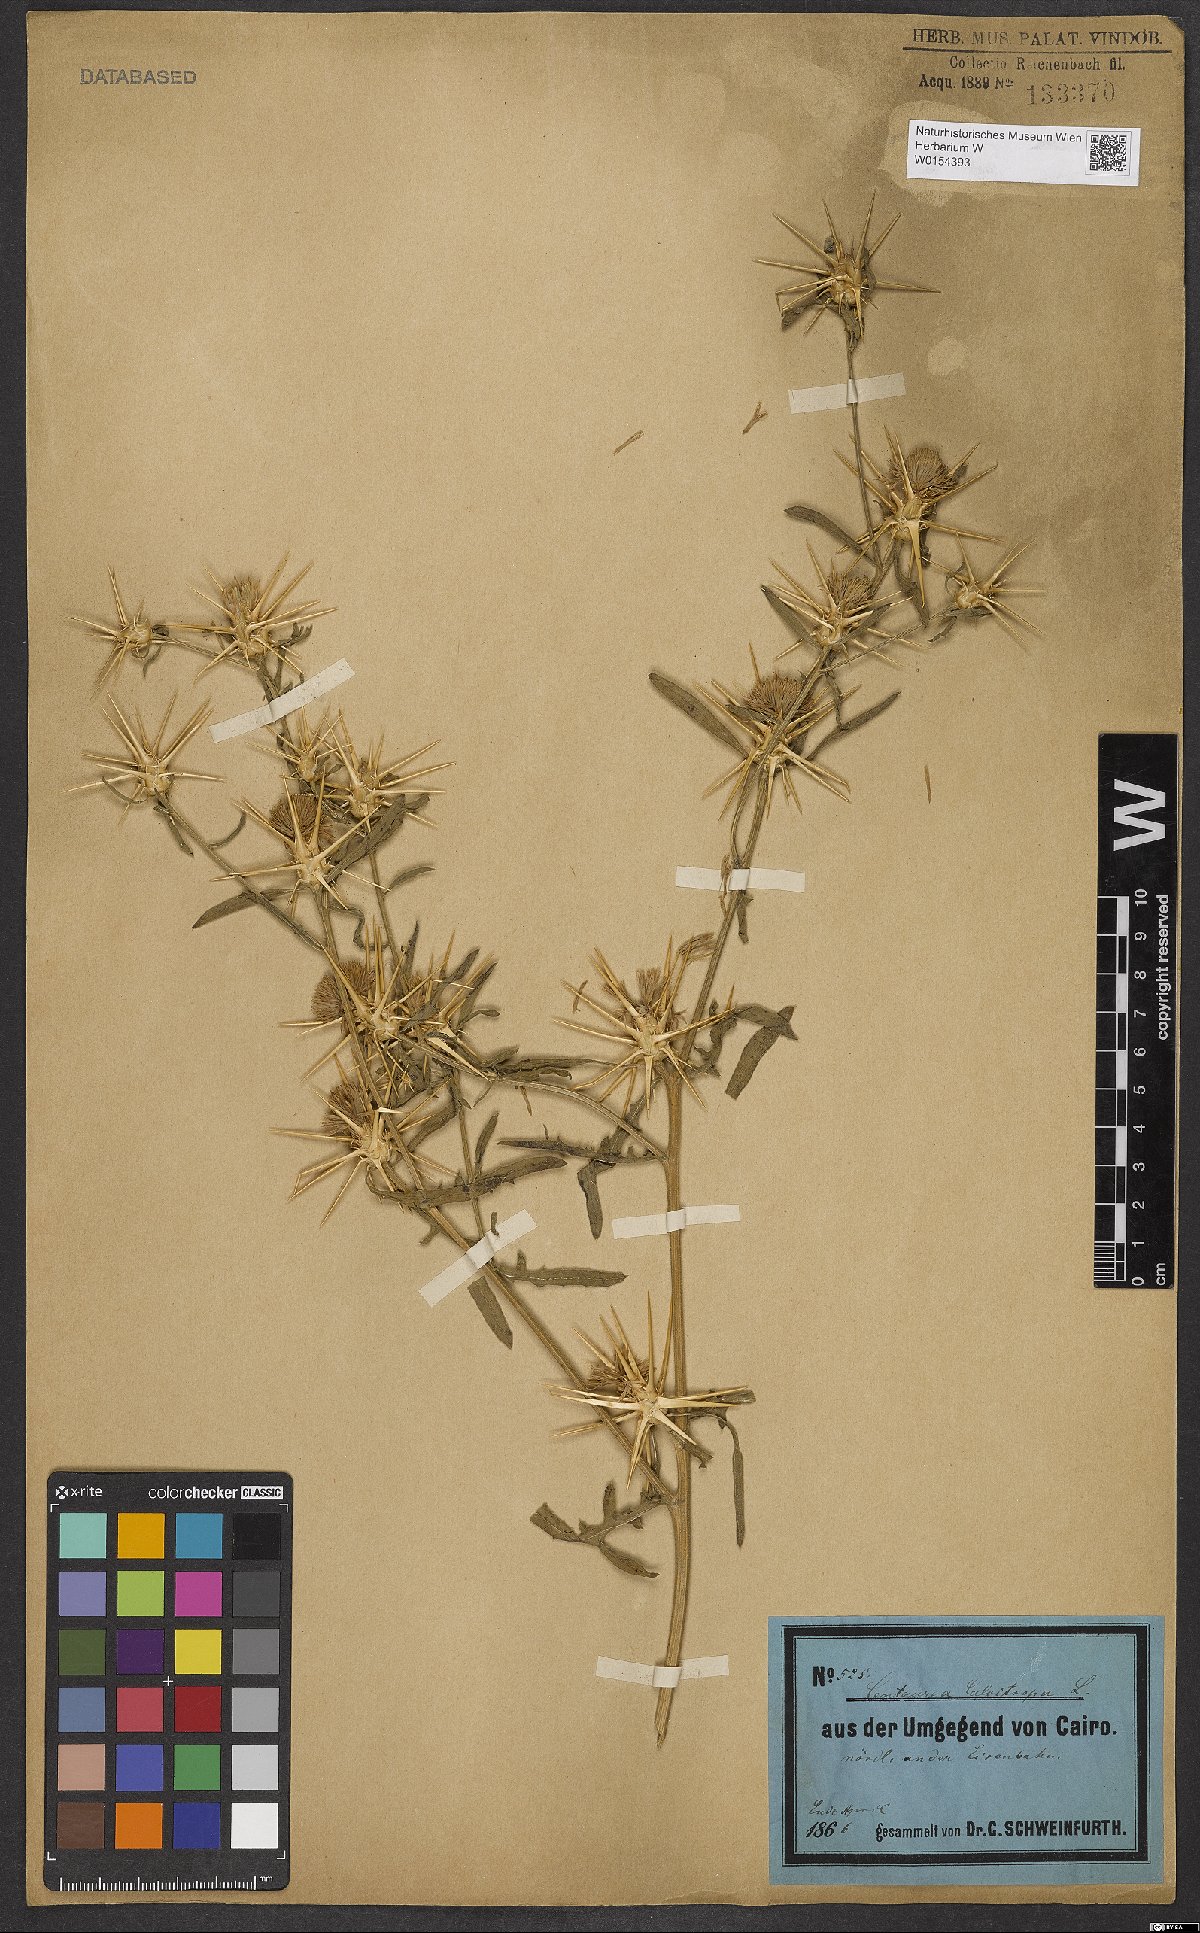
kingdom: Plantae
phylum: Tracheophyta
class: Magnoliopsida
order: Asterales
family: Asteraceae
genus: Centaurea
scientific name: Centaurea calcitrapa
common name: Red star-thistle
